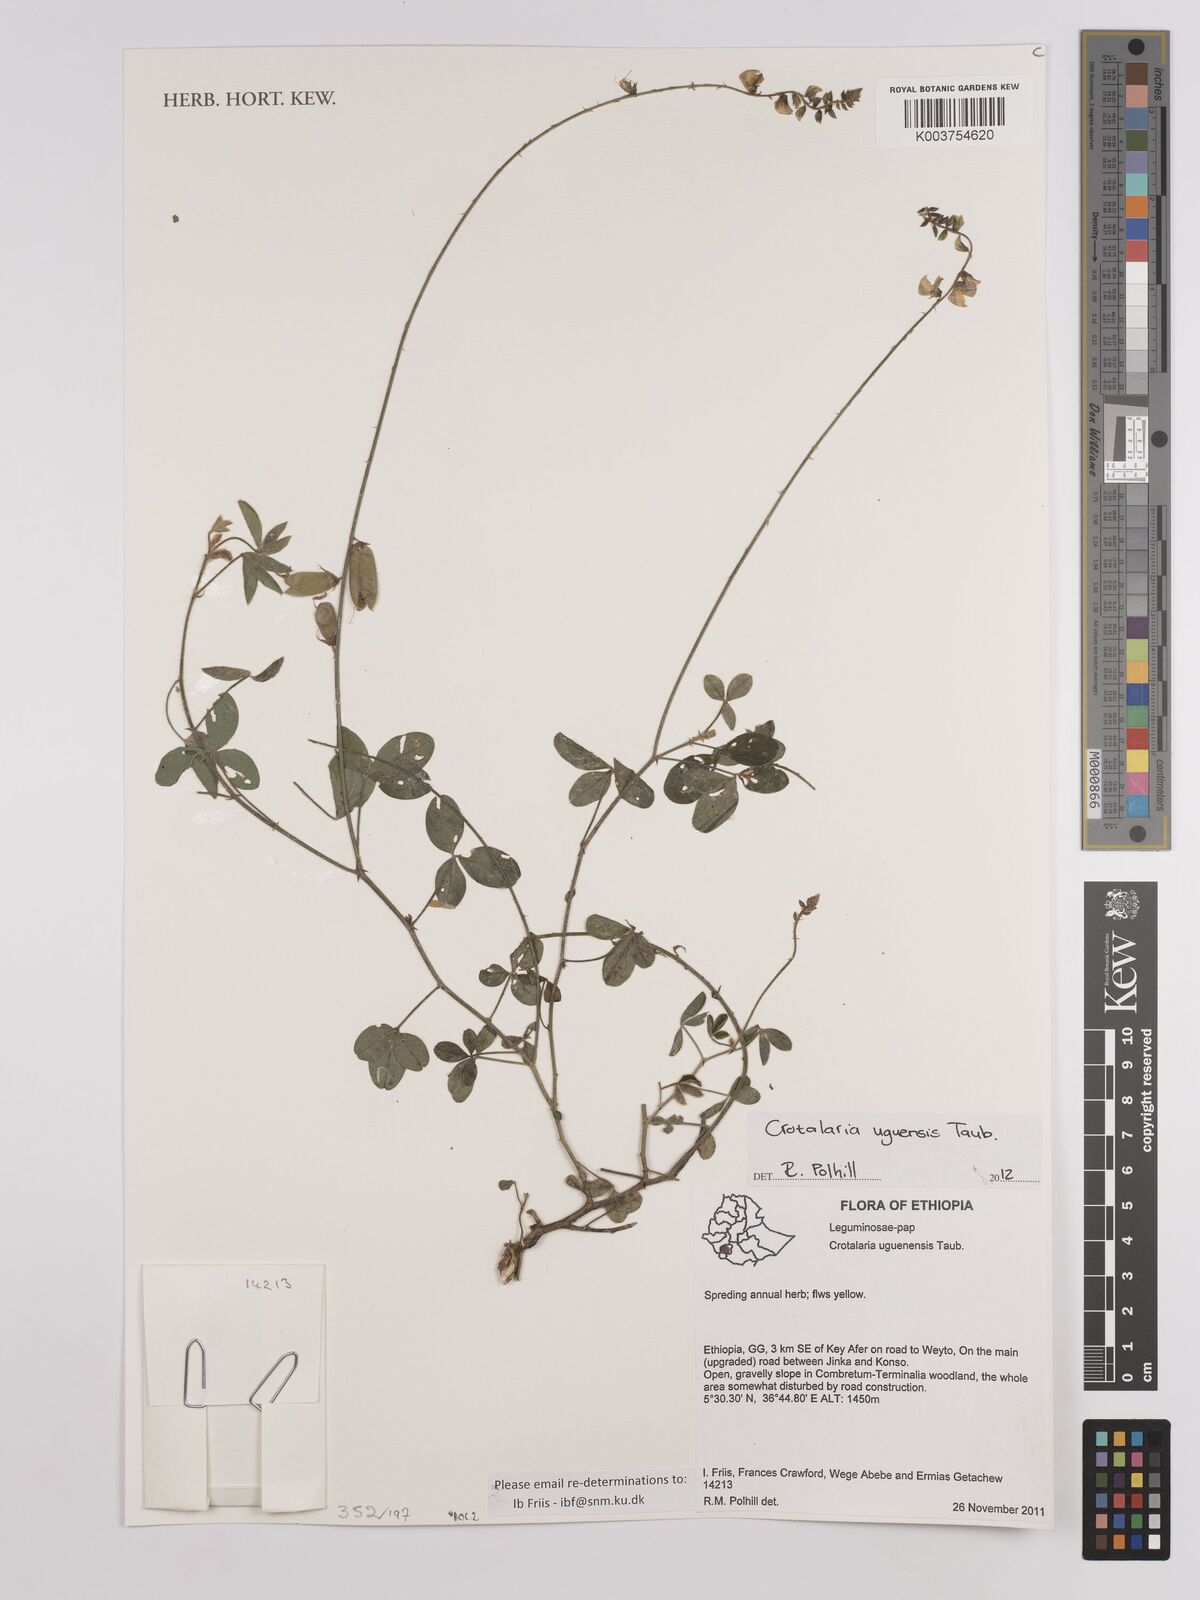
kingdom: Plantae
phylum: Tracheophyta
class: Magnoliopsida
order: Fabales
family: Fabaceae
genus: Crotalaria
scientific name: Crotalaria uguenensis
